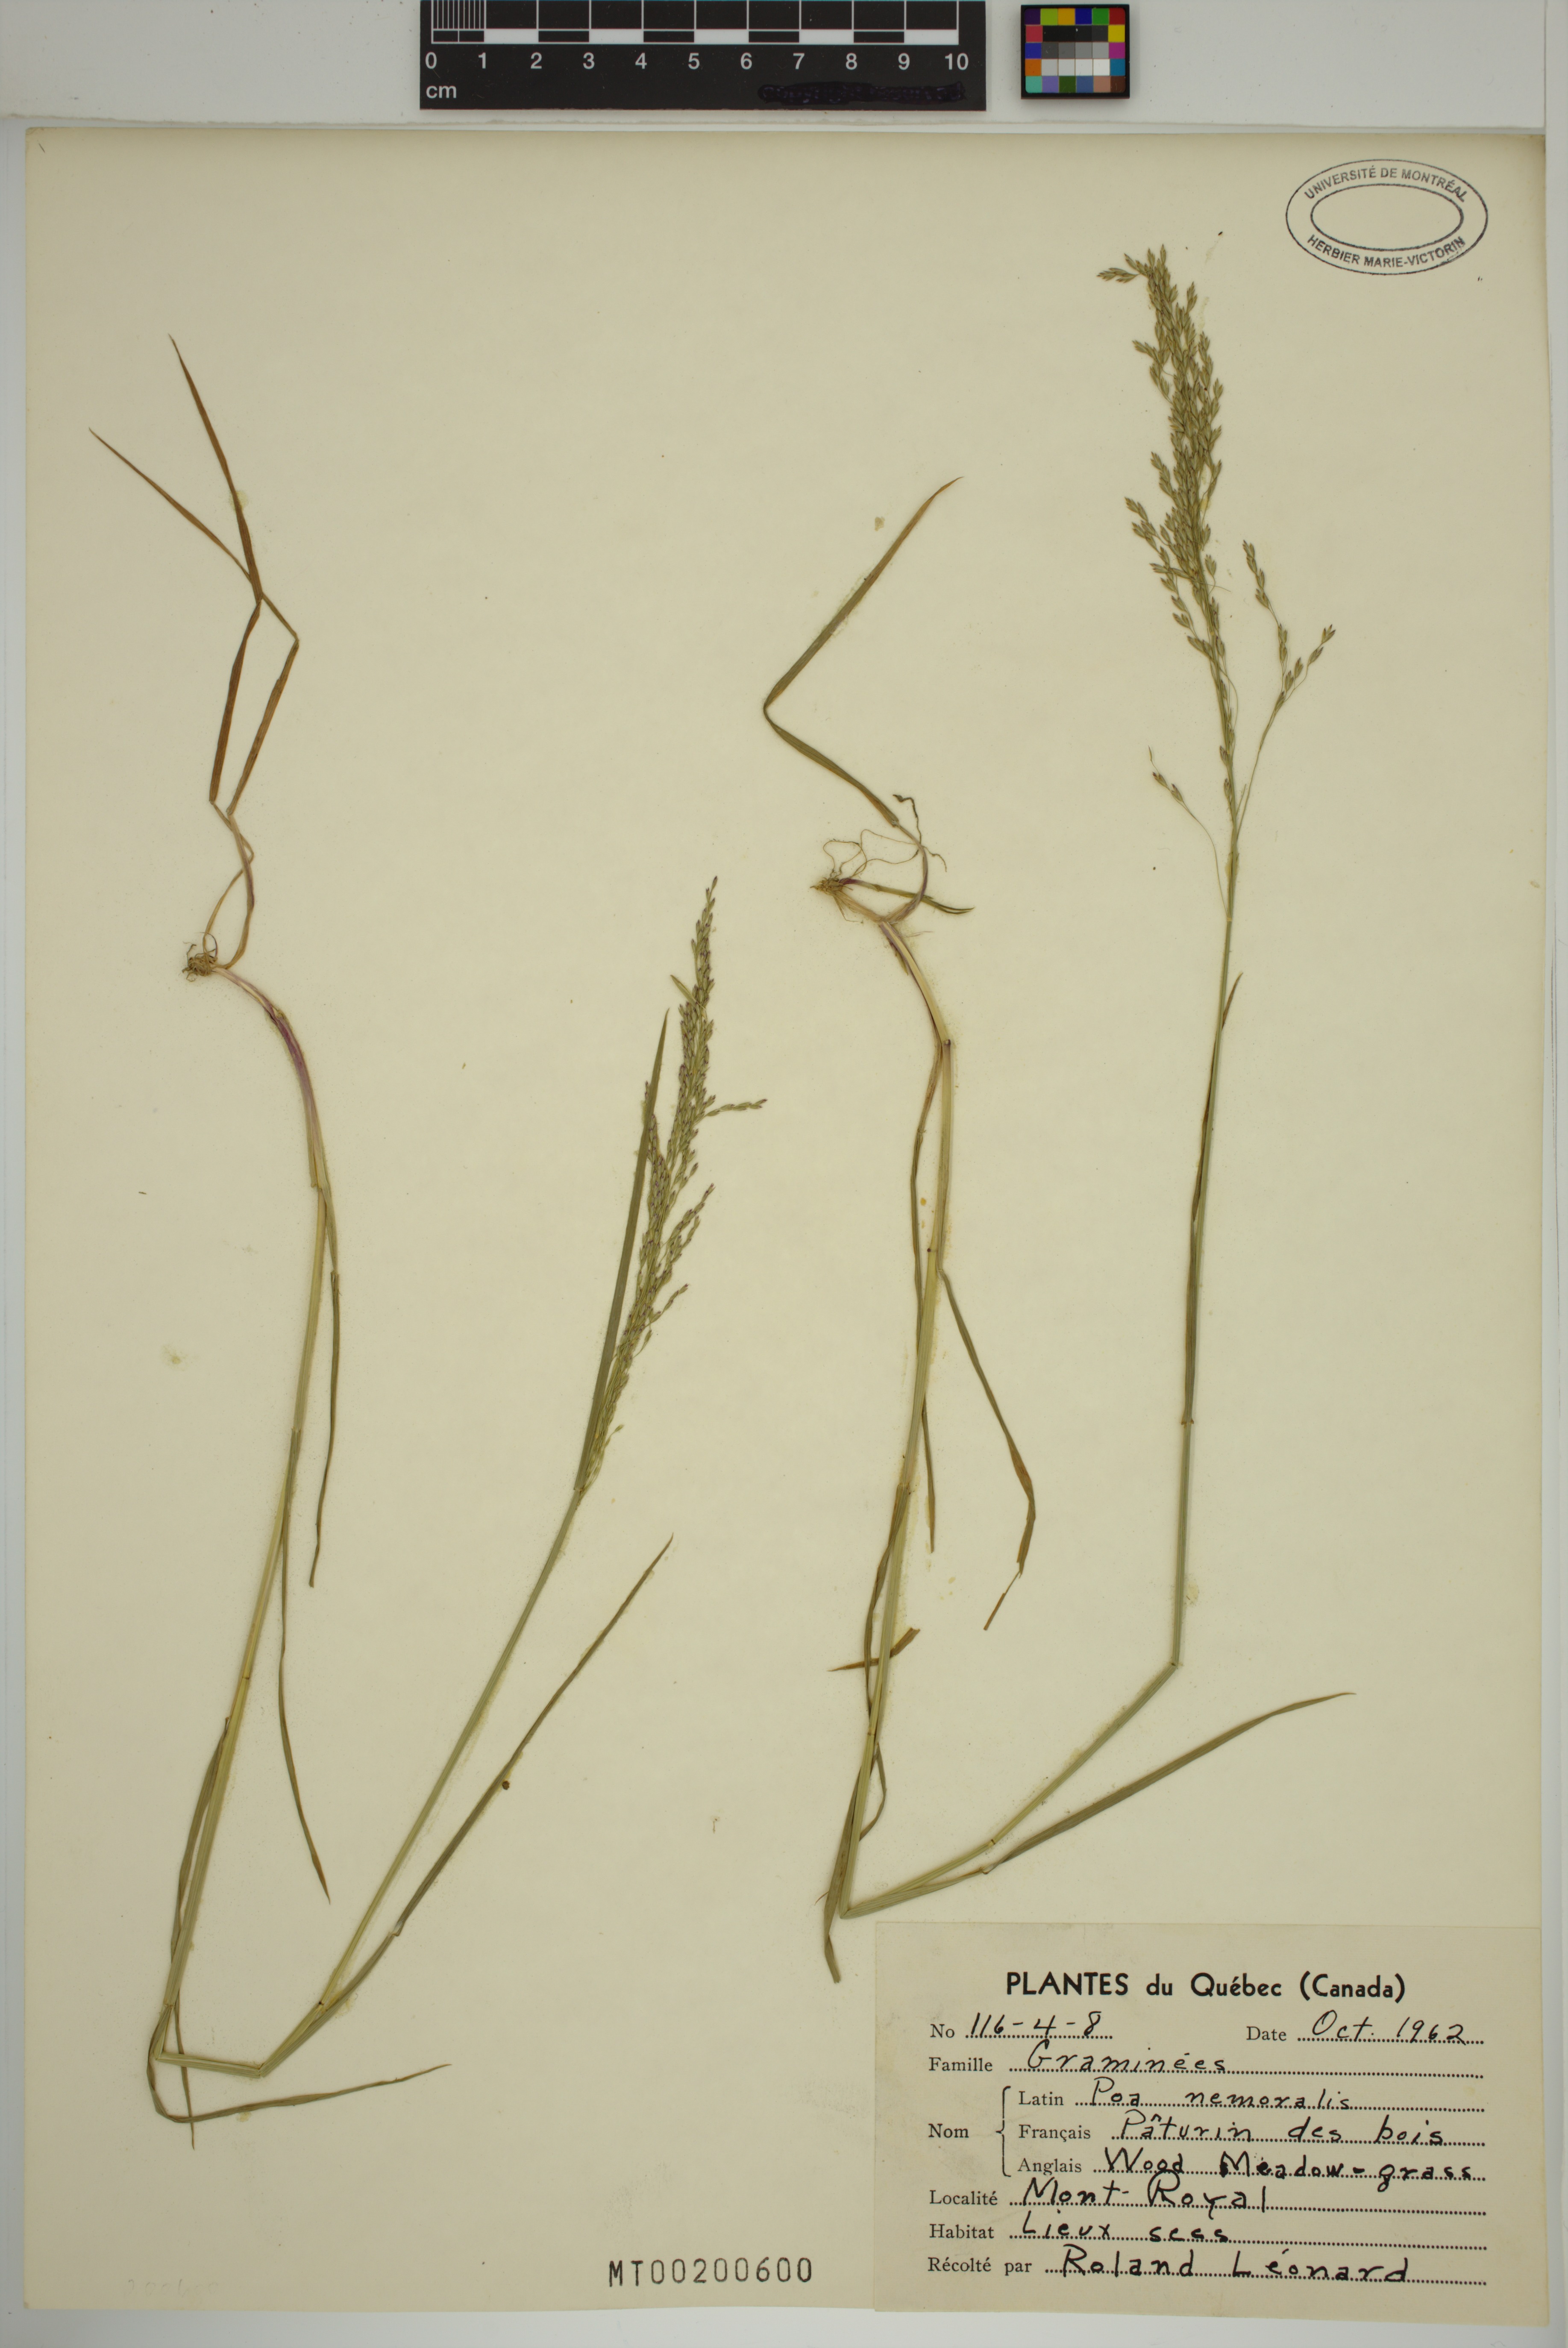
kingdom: Plantae
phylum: Tracheophyta
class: Liliopsida
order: Poales
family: Poaceae
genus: Poa
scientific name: Poa nemoralis
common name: Wood bluegrass
